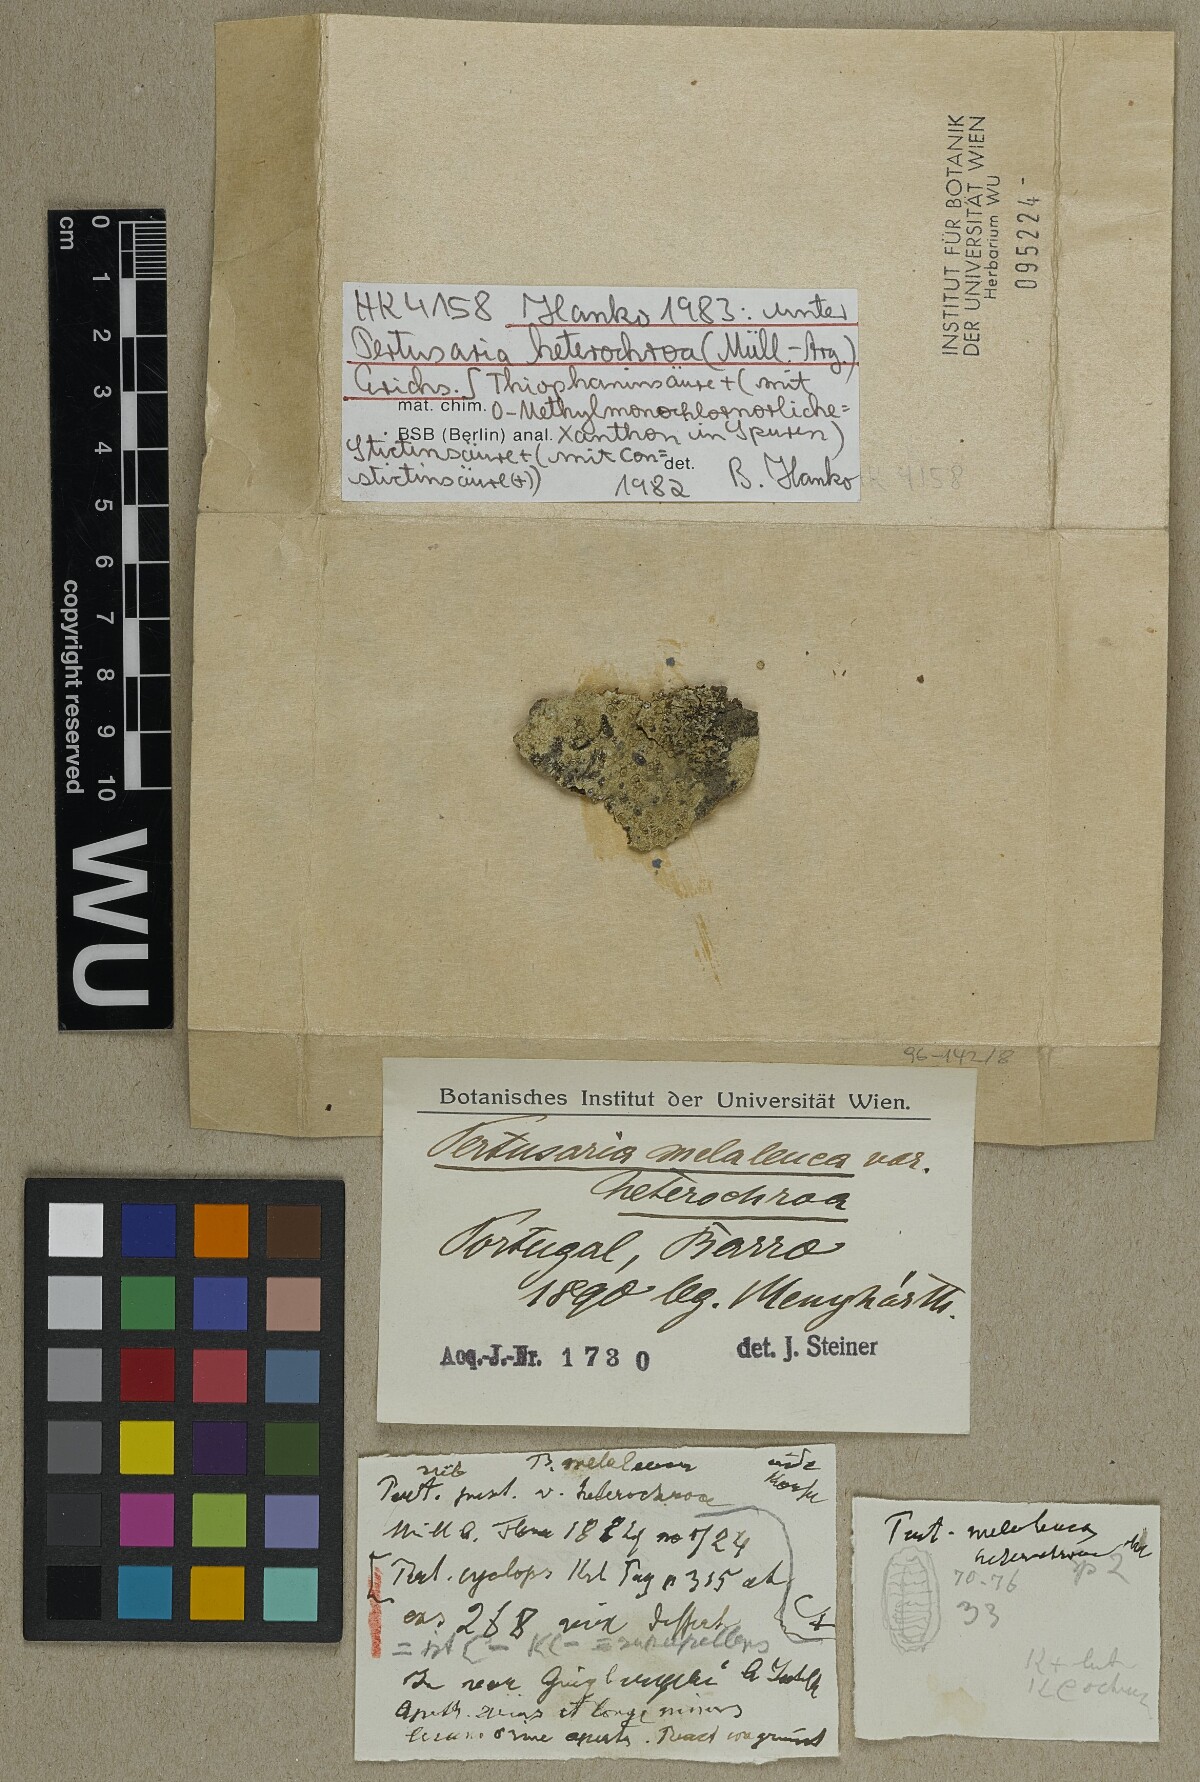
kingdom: Fungi
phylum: Ascomycota
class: Lecanoromycetes
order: Pertusariales
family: Pertusariaceae
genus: Pertusaria
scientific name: Pertusaria heterochroa
